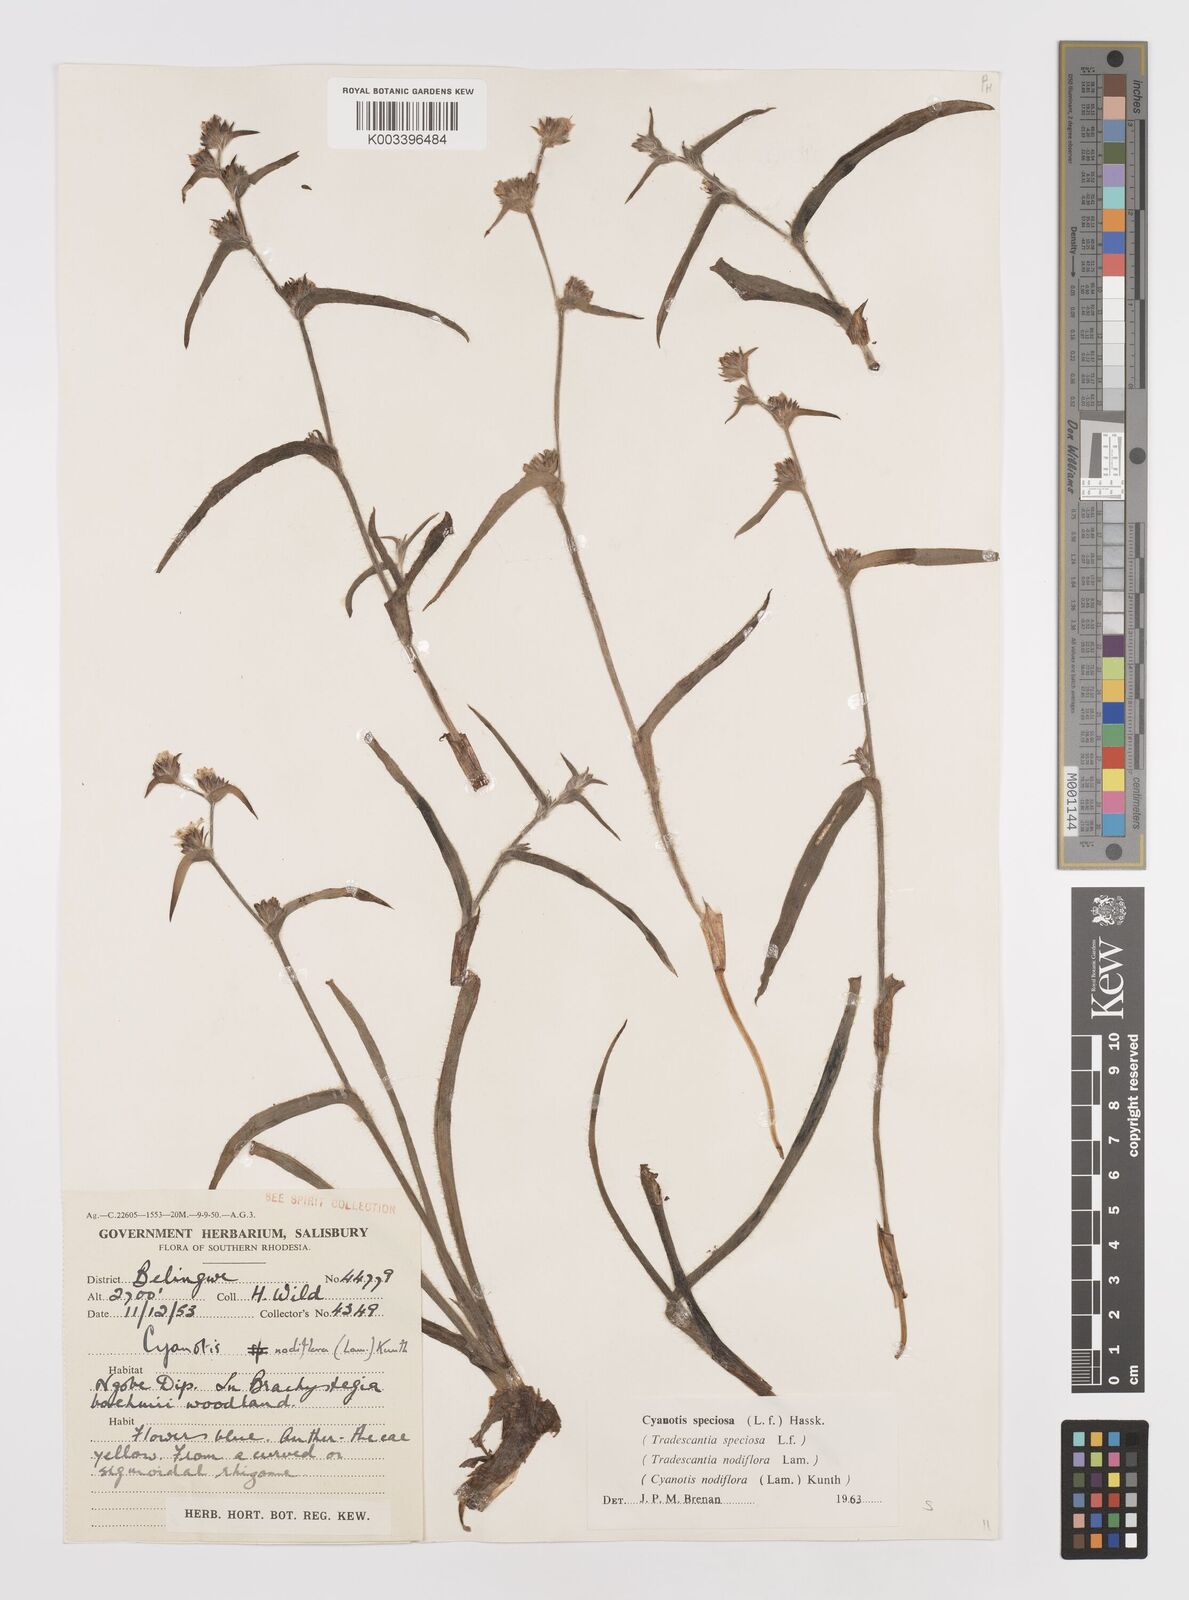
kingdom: Plantae
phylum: Tracheophyta
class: Liliopsida
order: Commelinales
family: Commelinaceae
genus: Cyanotis
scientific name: Cyanotis speciosa
